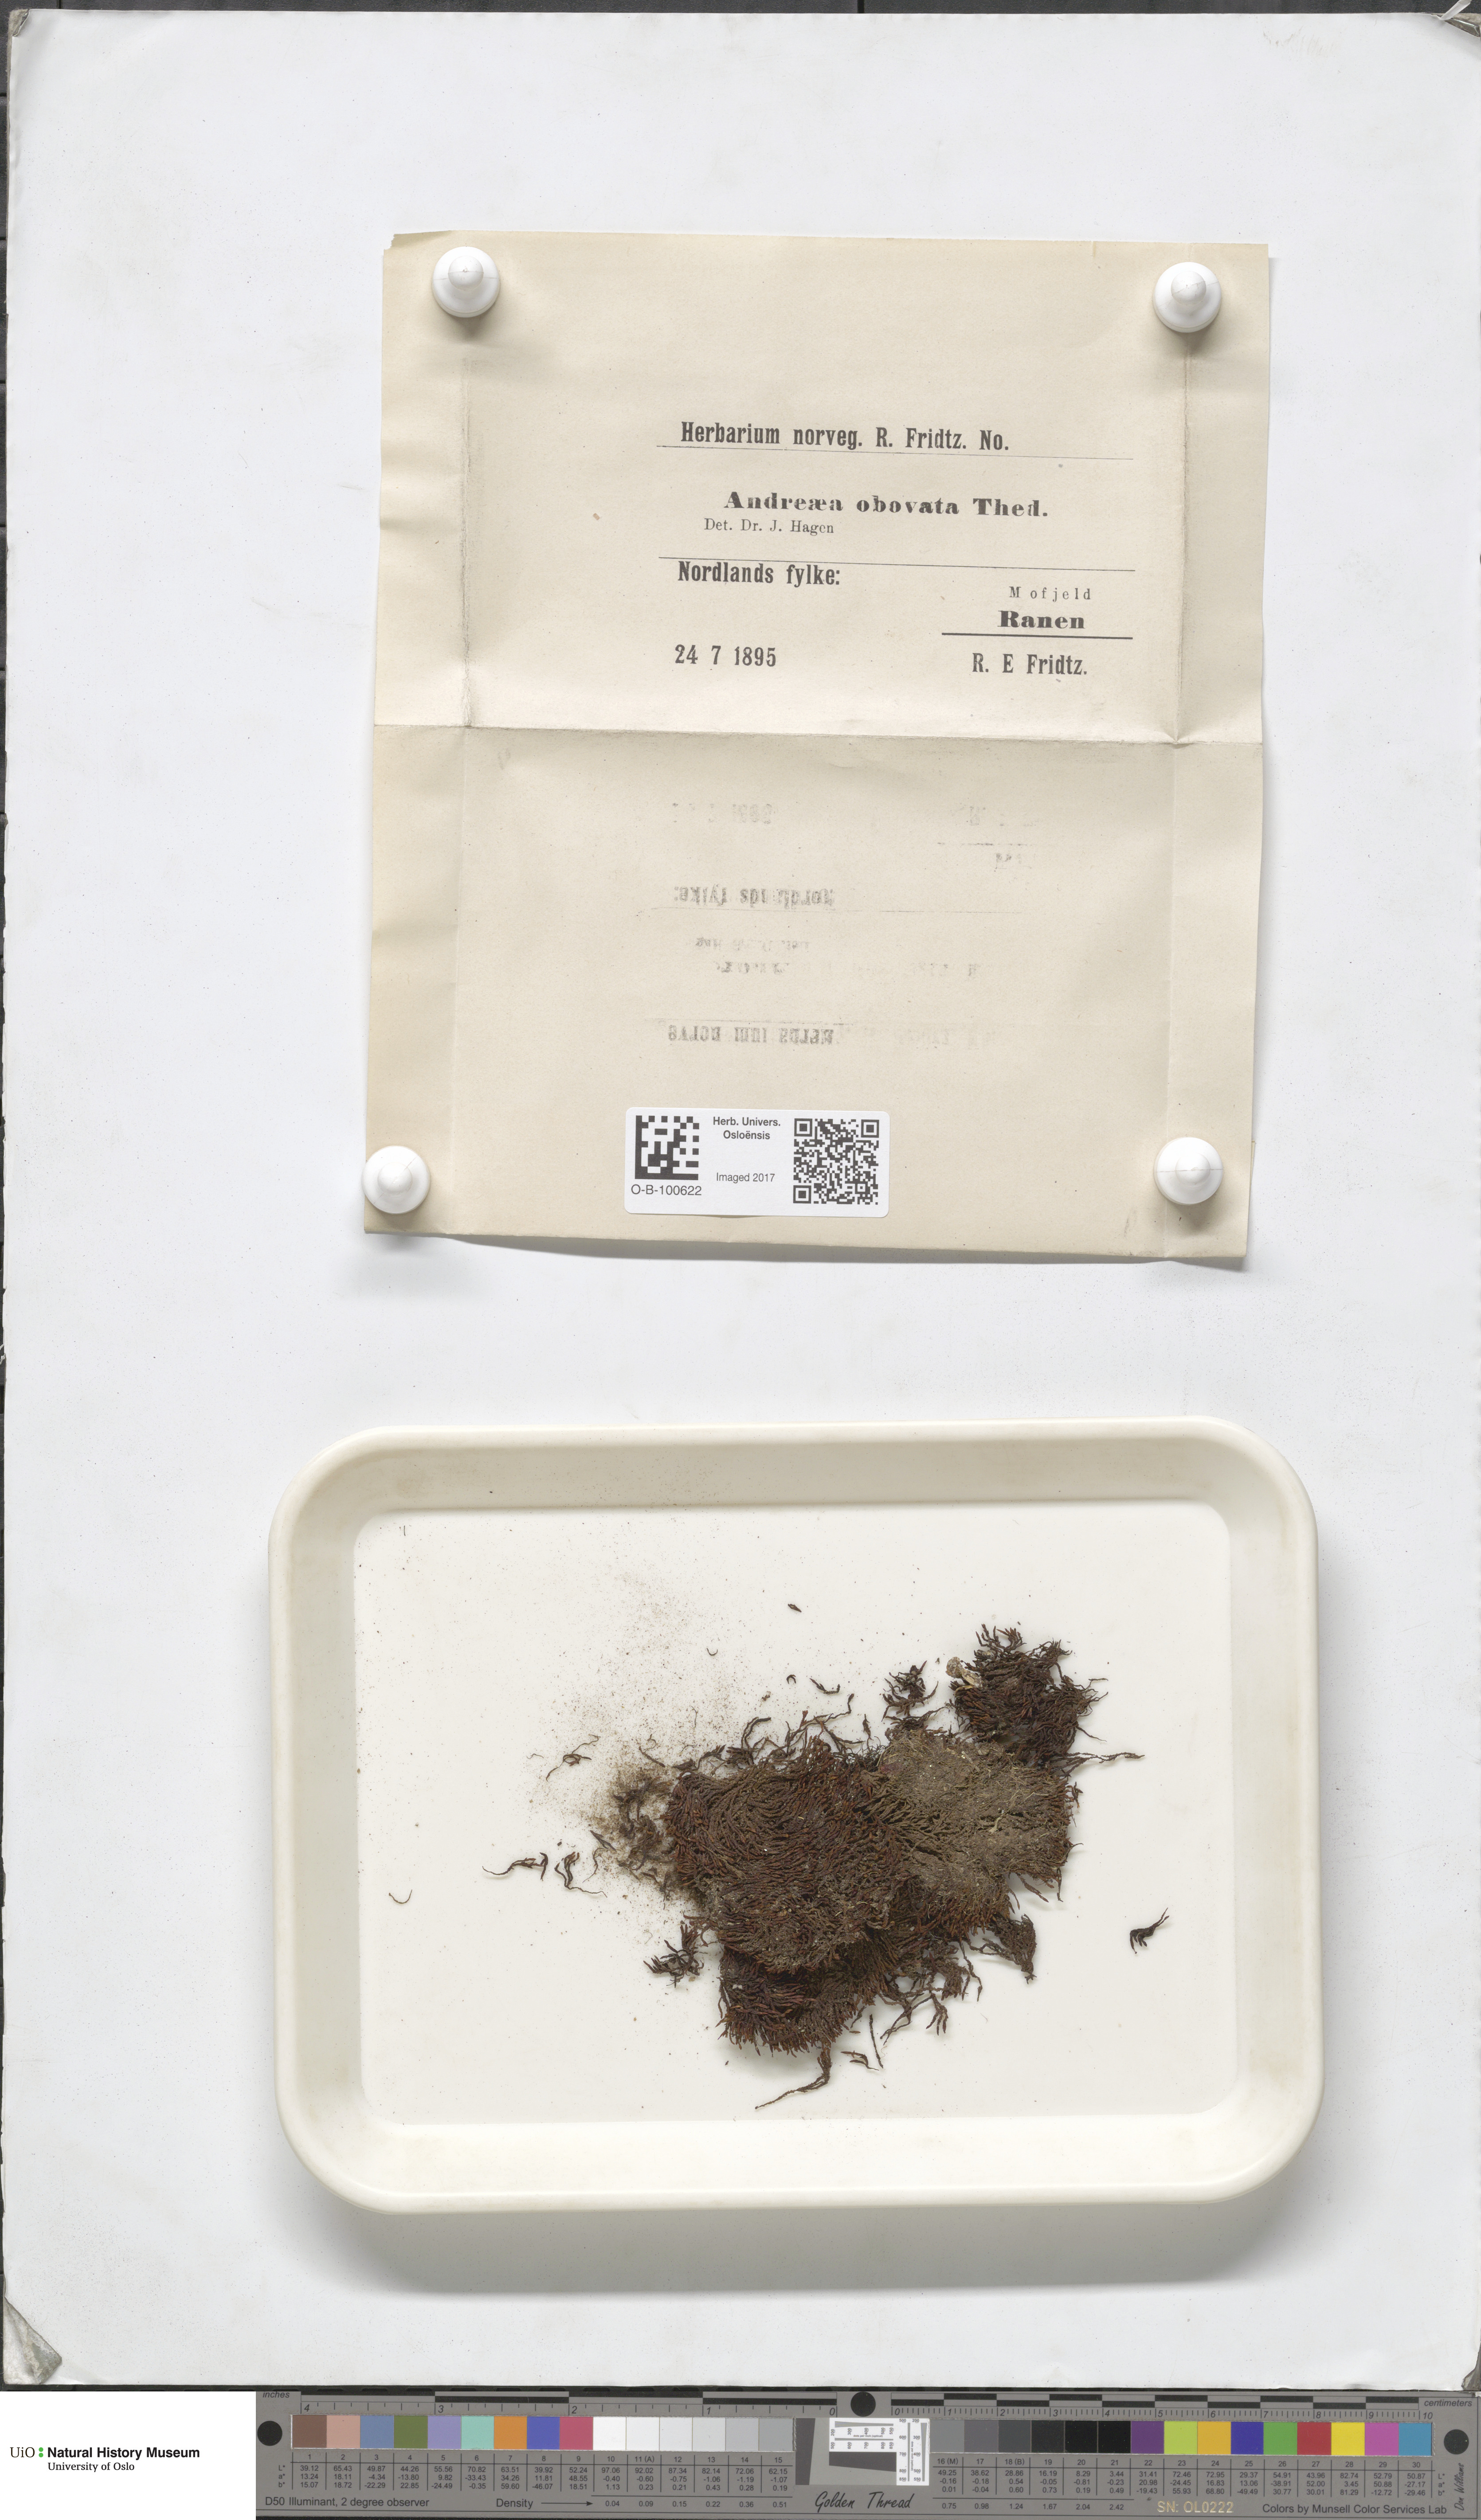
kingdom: Plantae
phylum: Bryophyta
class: Andreaeopsida
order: Andreaeales
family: Andreaeaceae
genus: Andreaea
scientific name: Andreaea alpina
